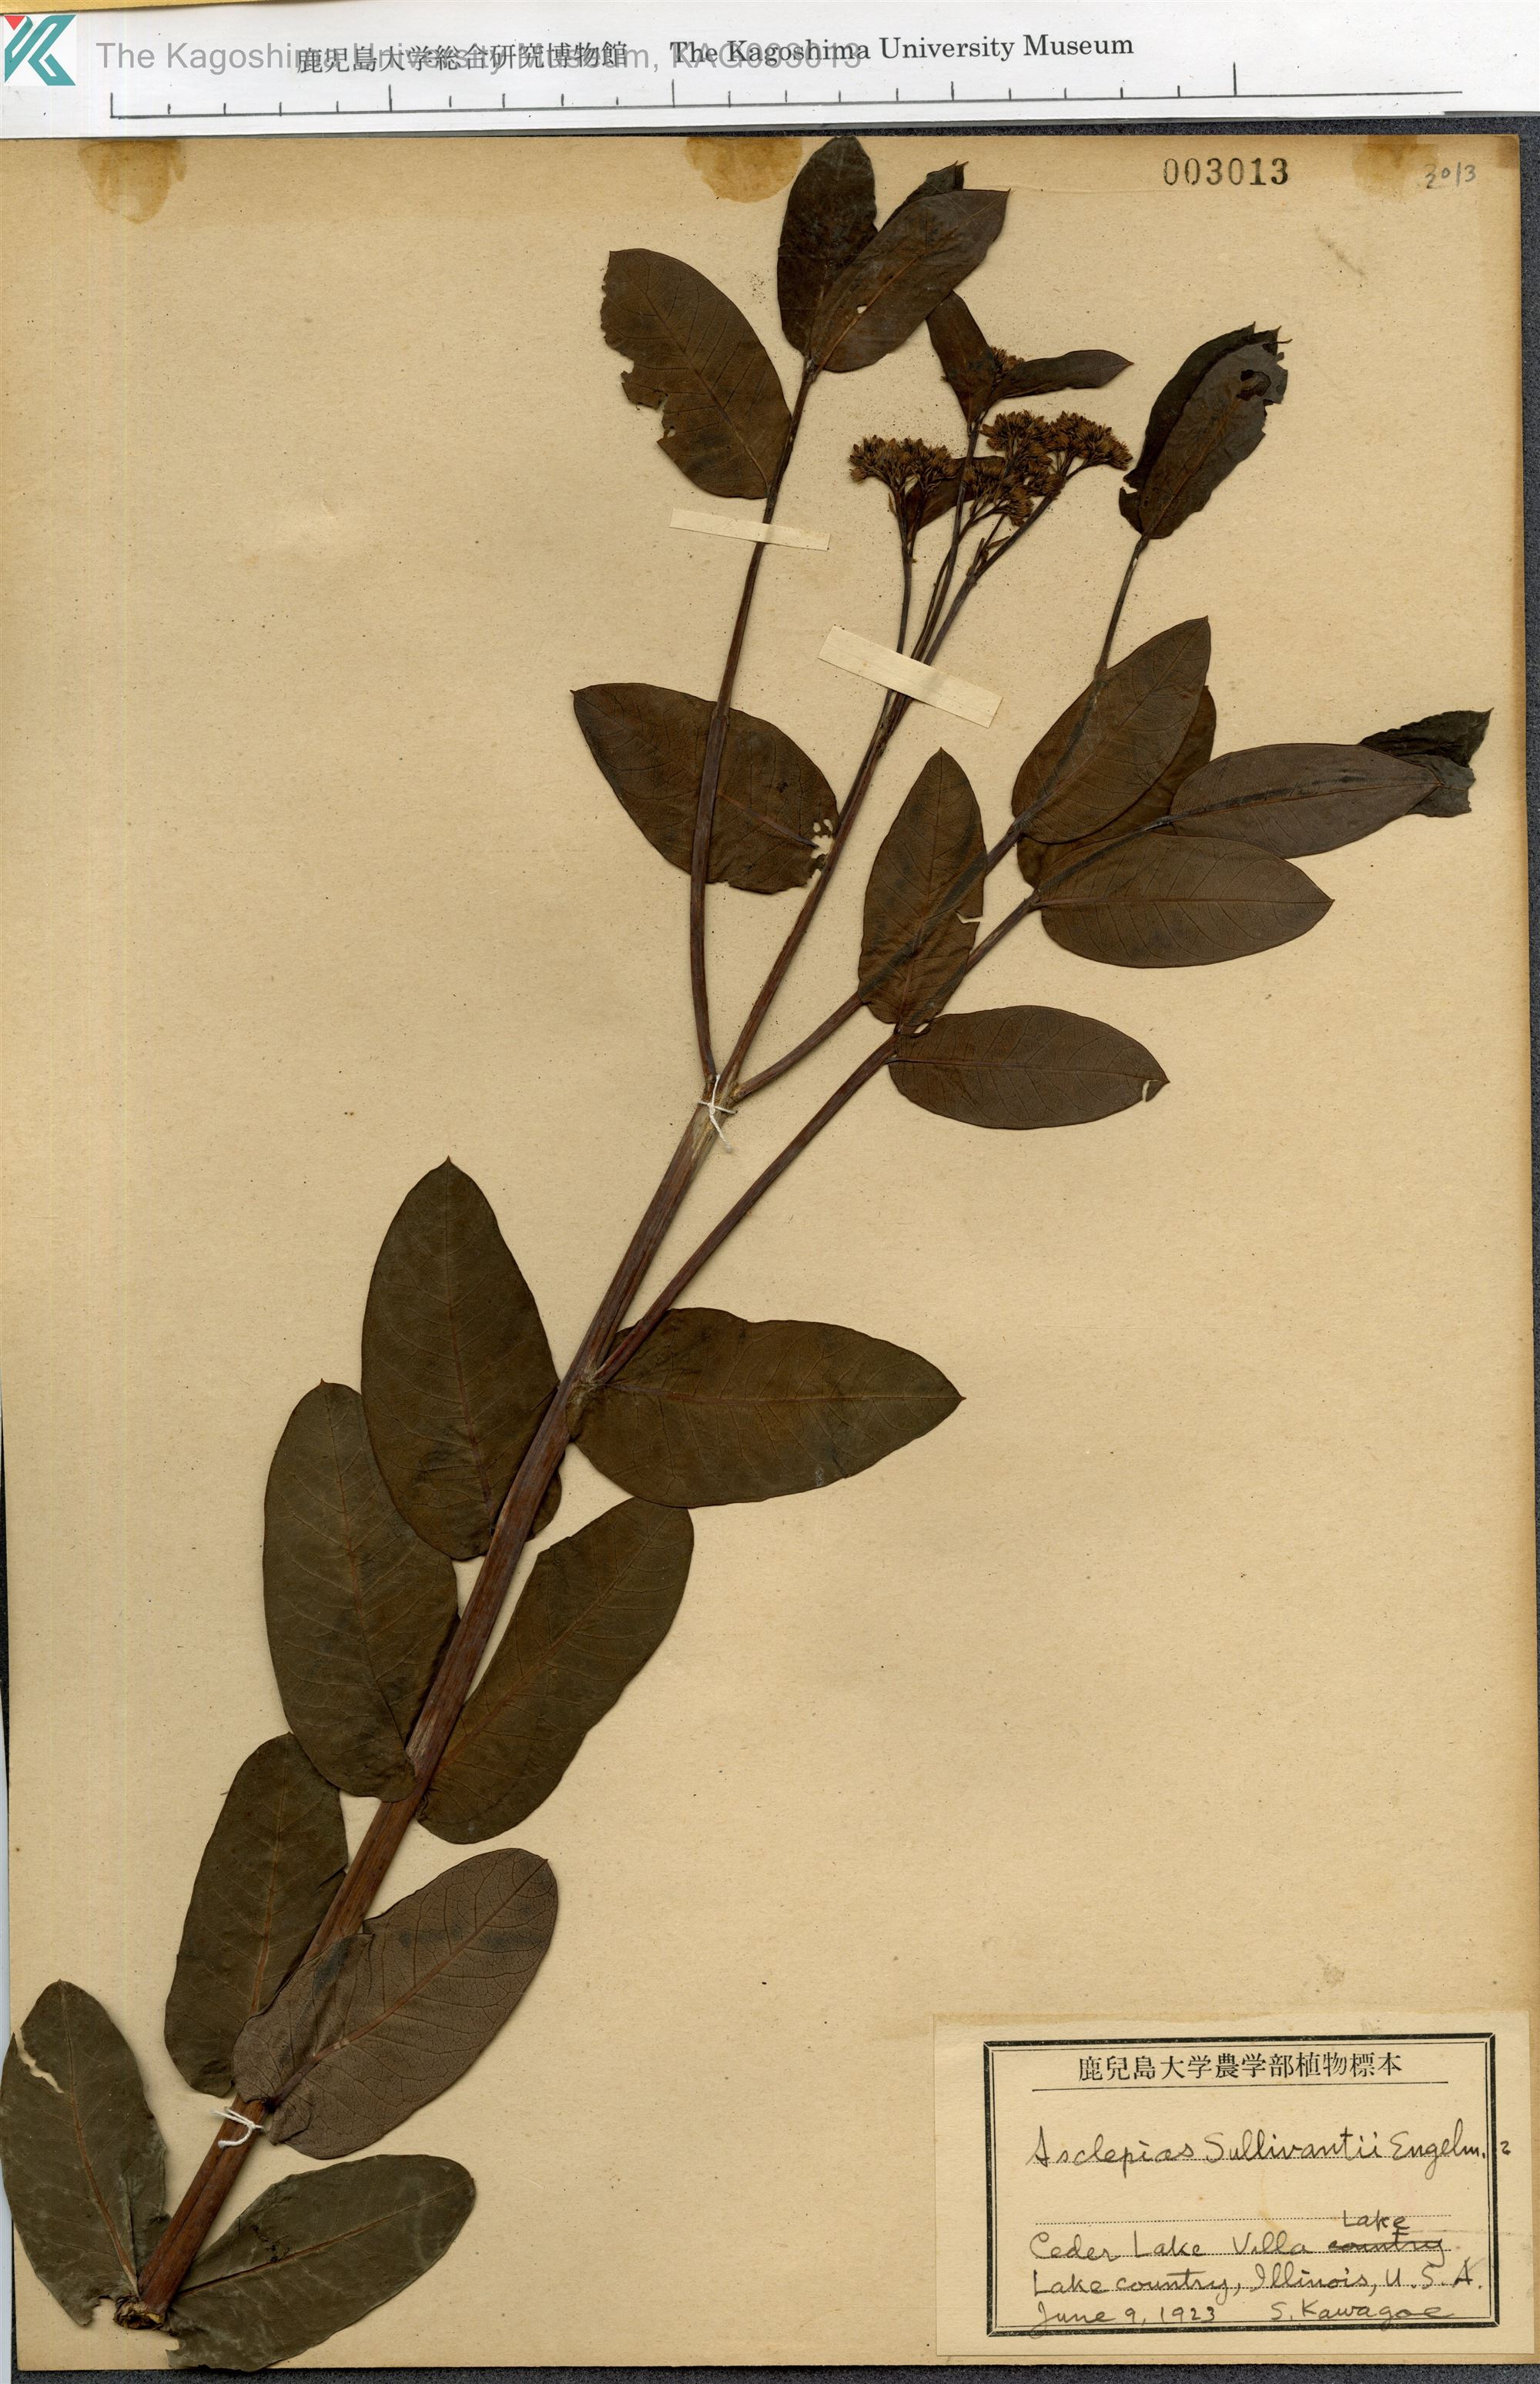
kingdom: Plantae
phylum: Tracheophyta
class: Magnoliopsida
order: Gentianales
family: Apocynaceae
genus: Asclepias
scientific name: Asclepias sullivantii
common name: Prairie milkweed
